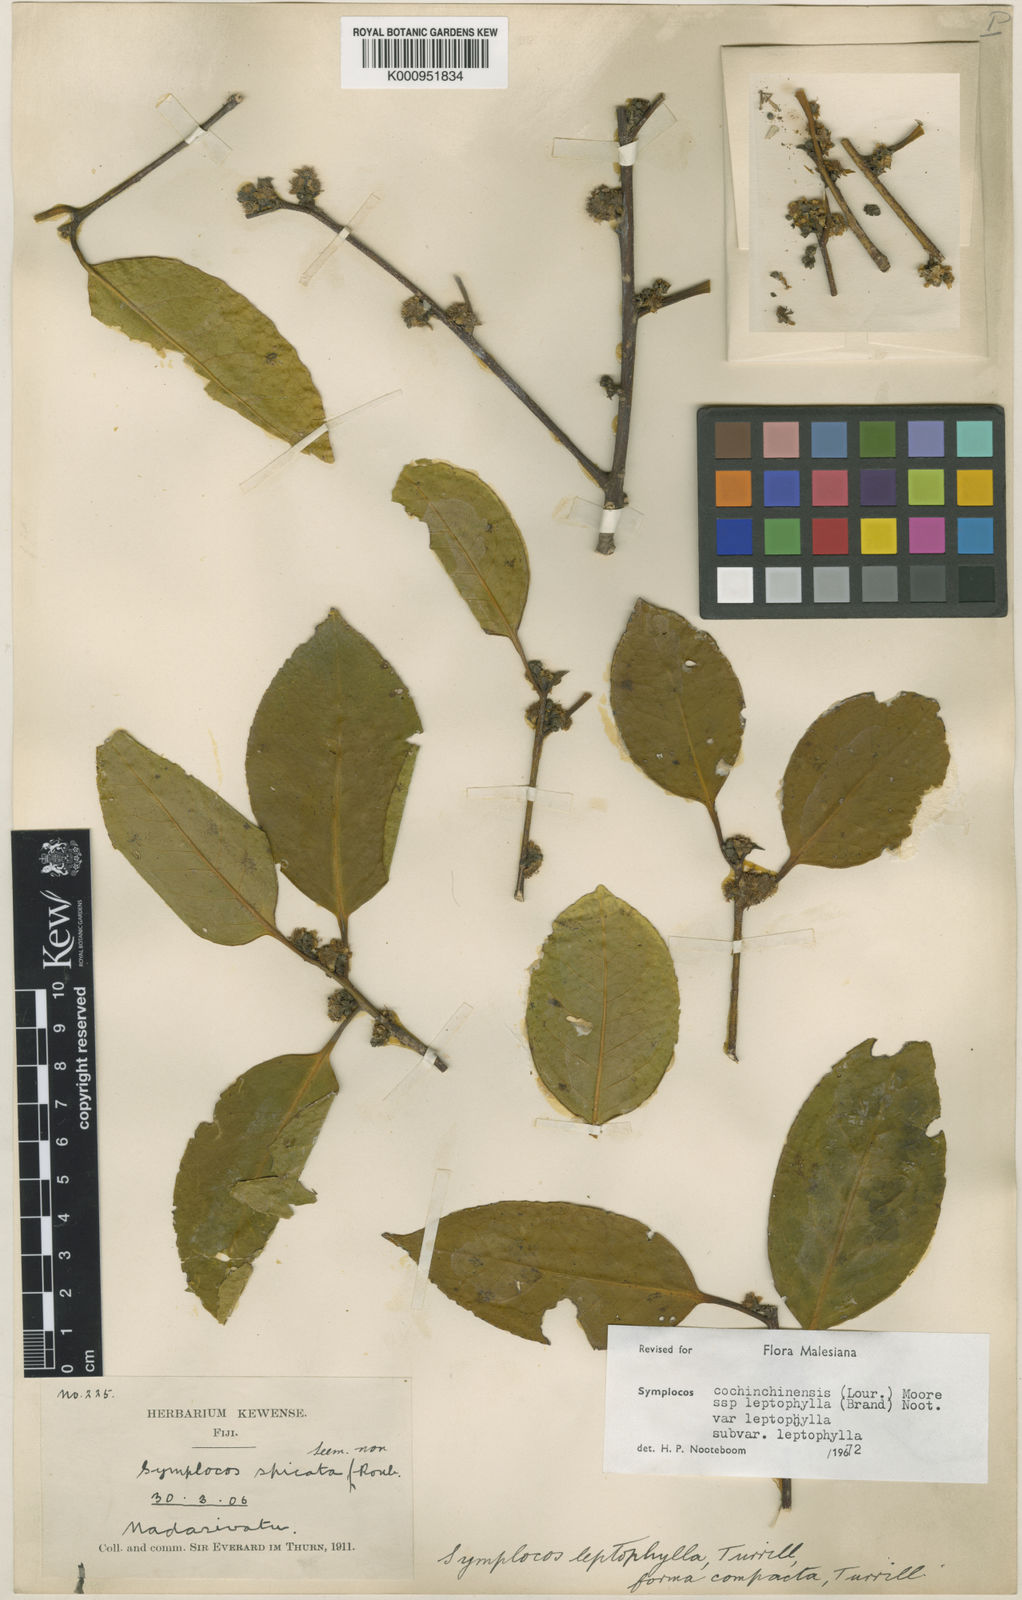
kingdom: Plantae
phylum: Tracheophyta
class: Magnoliopsida
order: Ericales
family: Symplocaceae
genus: Symplocos
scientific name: Symplocos leptophylla
